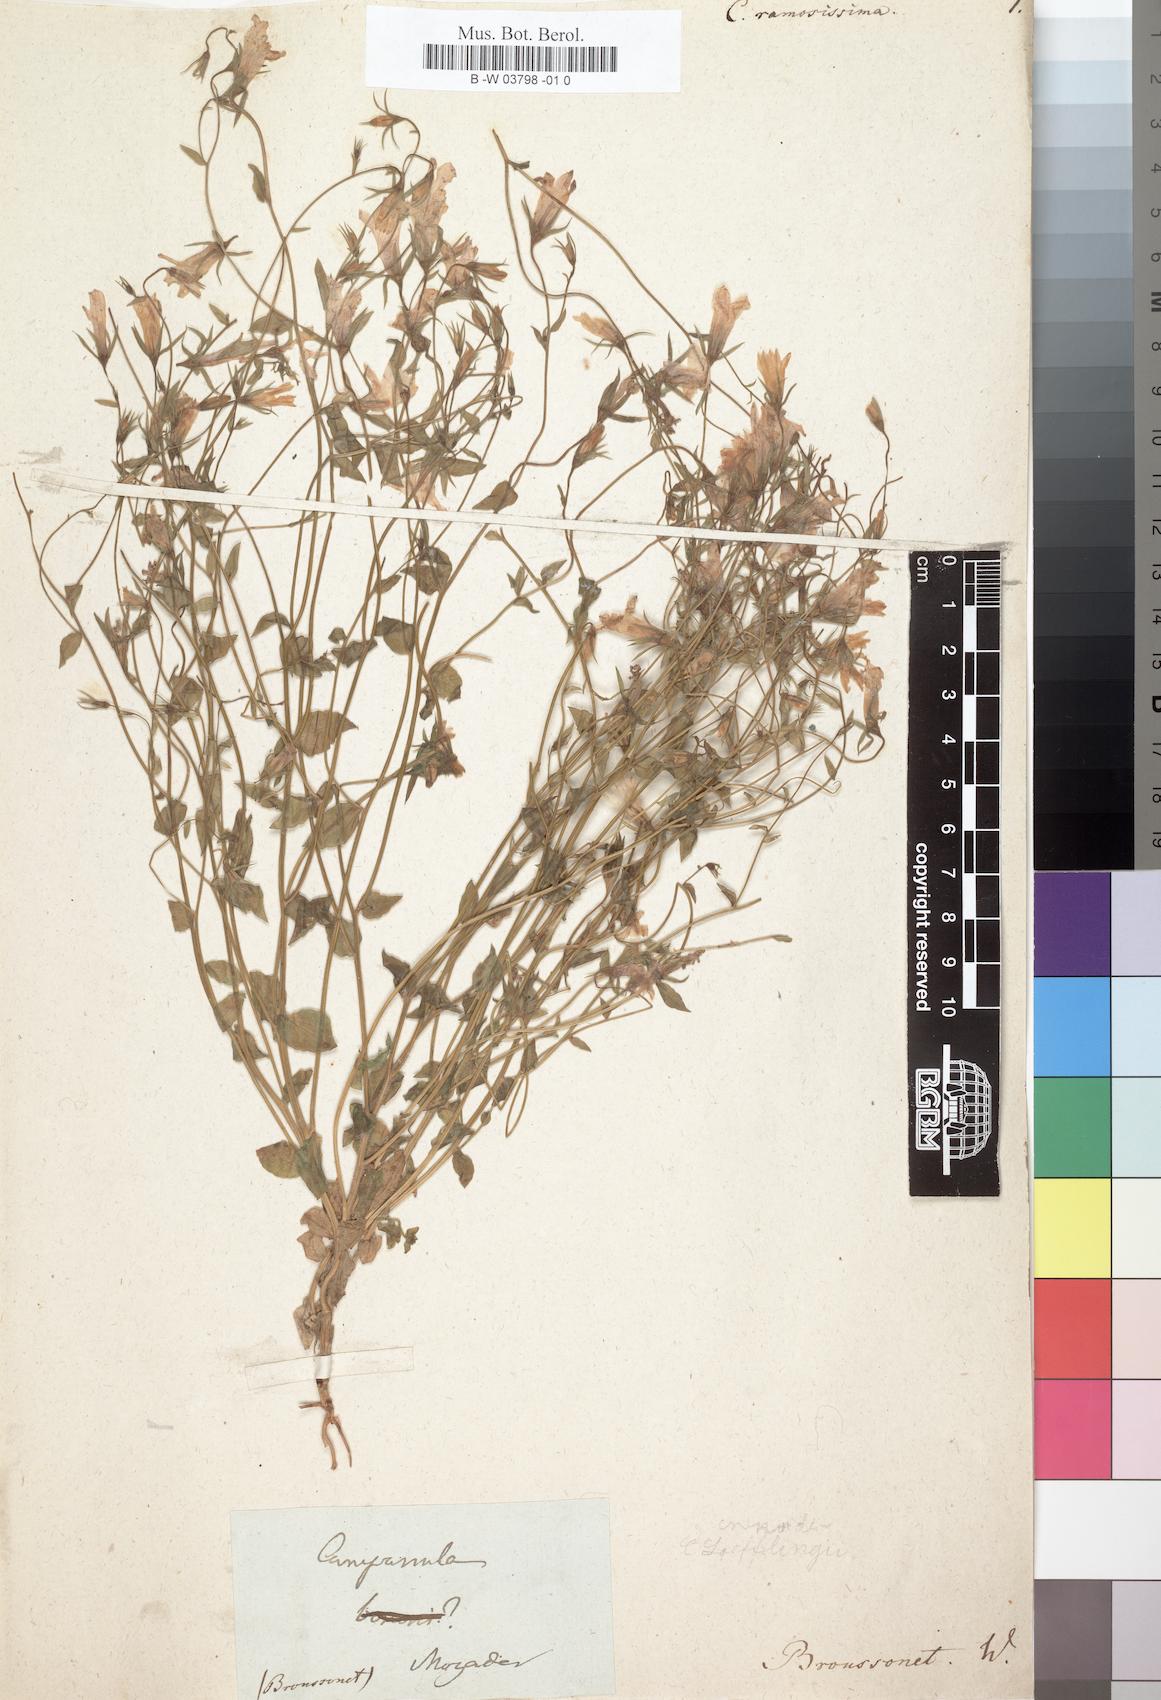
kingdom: Plantae
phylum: Tracheophyta
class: Magnoliopsida
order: Asterales
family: Campanulaceae
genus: Campanula
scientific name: Campanula lusitanica
